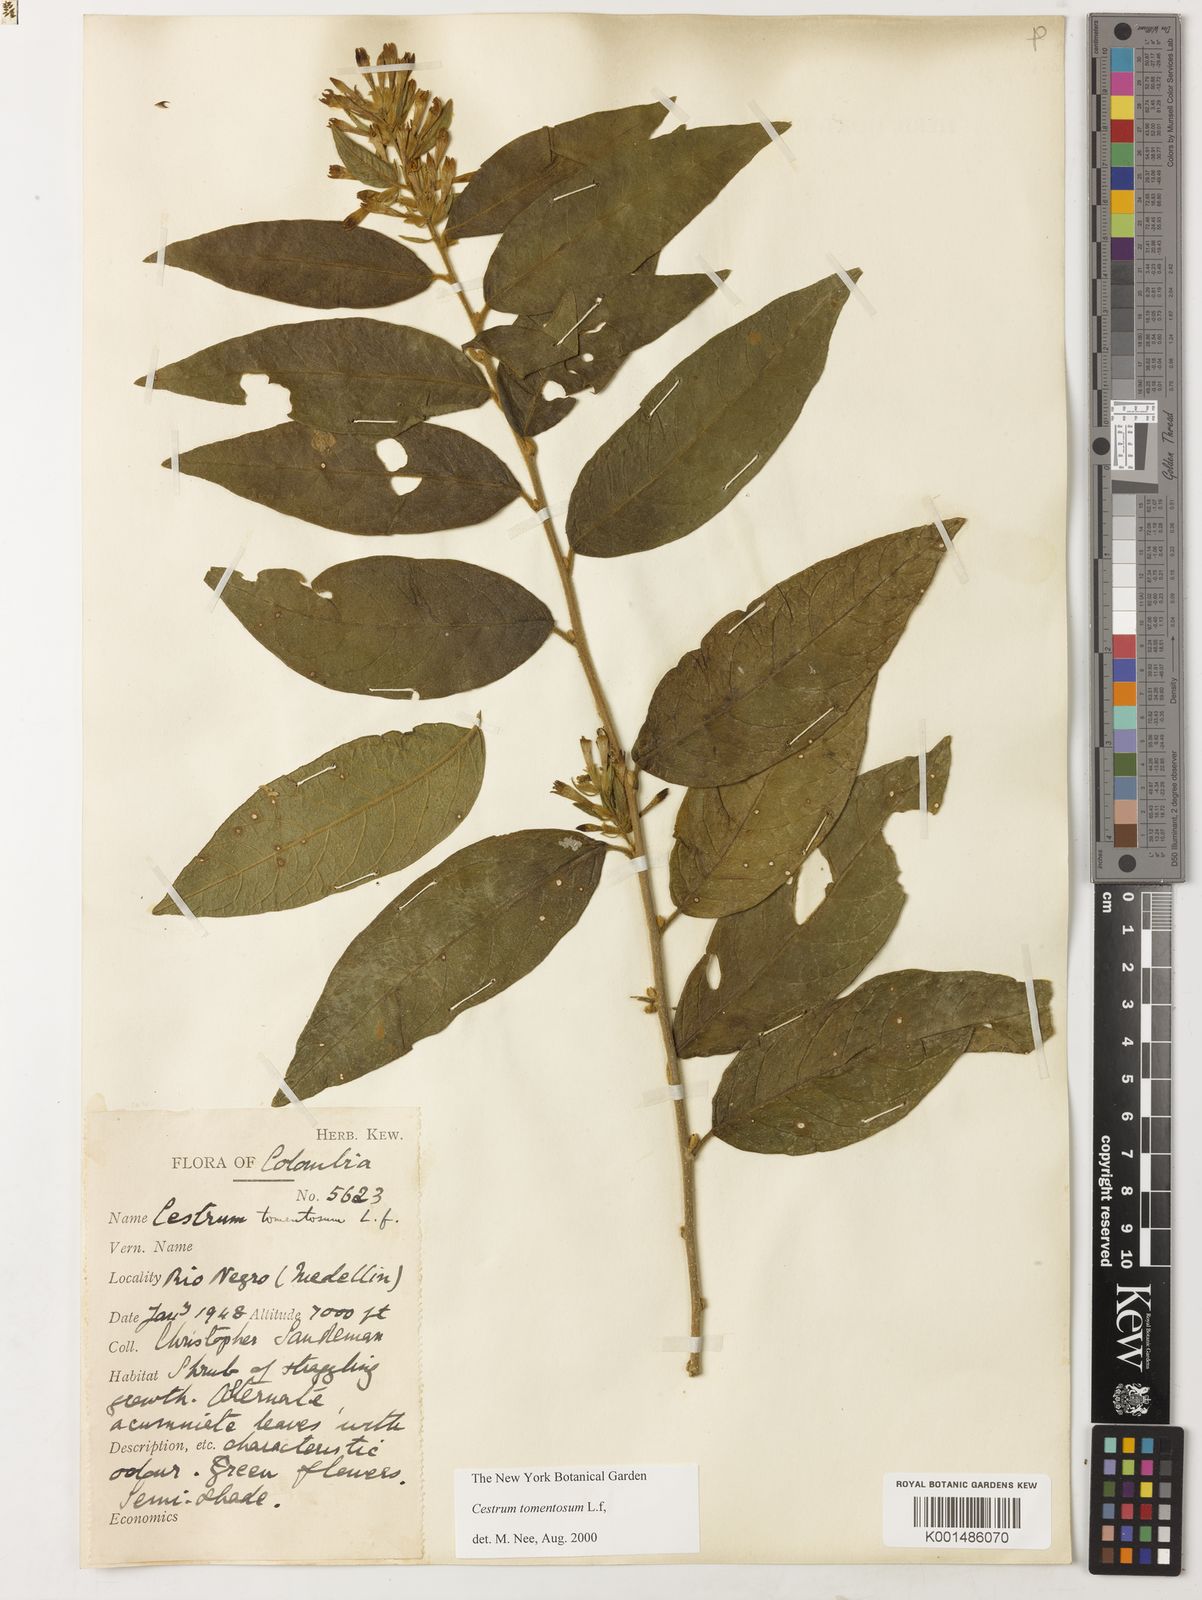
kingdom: Plantae
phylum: Tracheophyta
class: Magnoliopsida
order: Solanales
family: Solanaceae
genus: Cestrum
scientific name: Cestrum tomentosum
